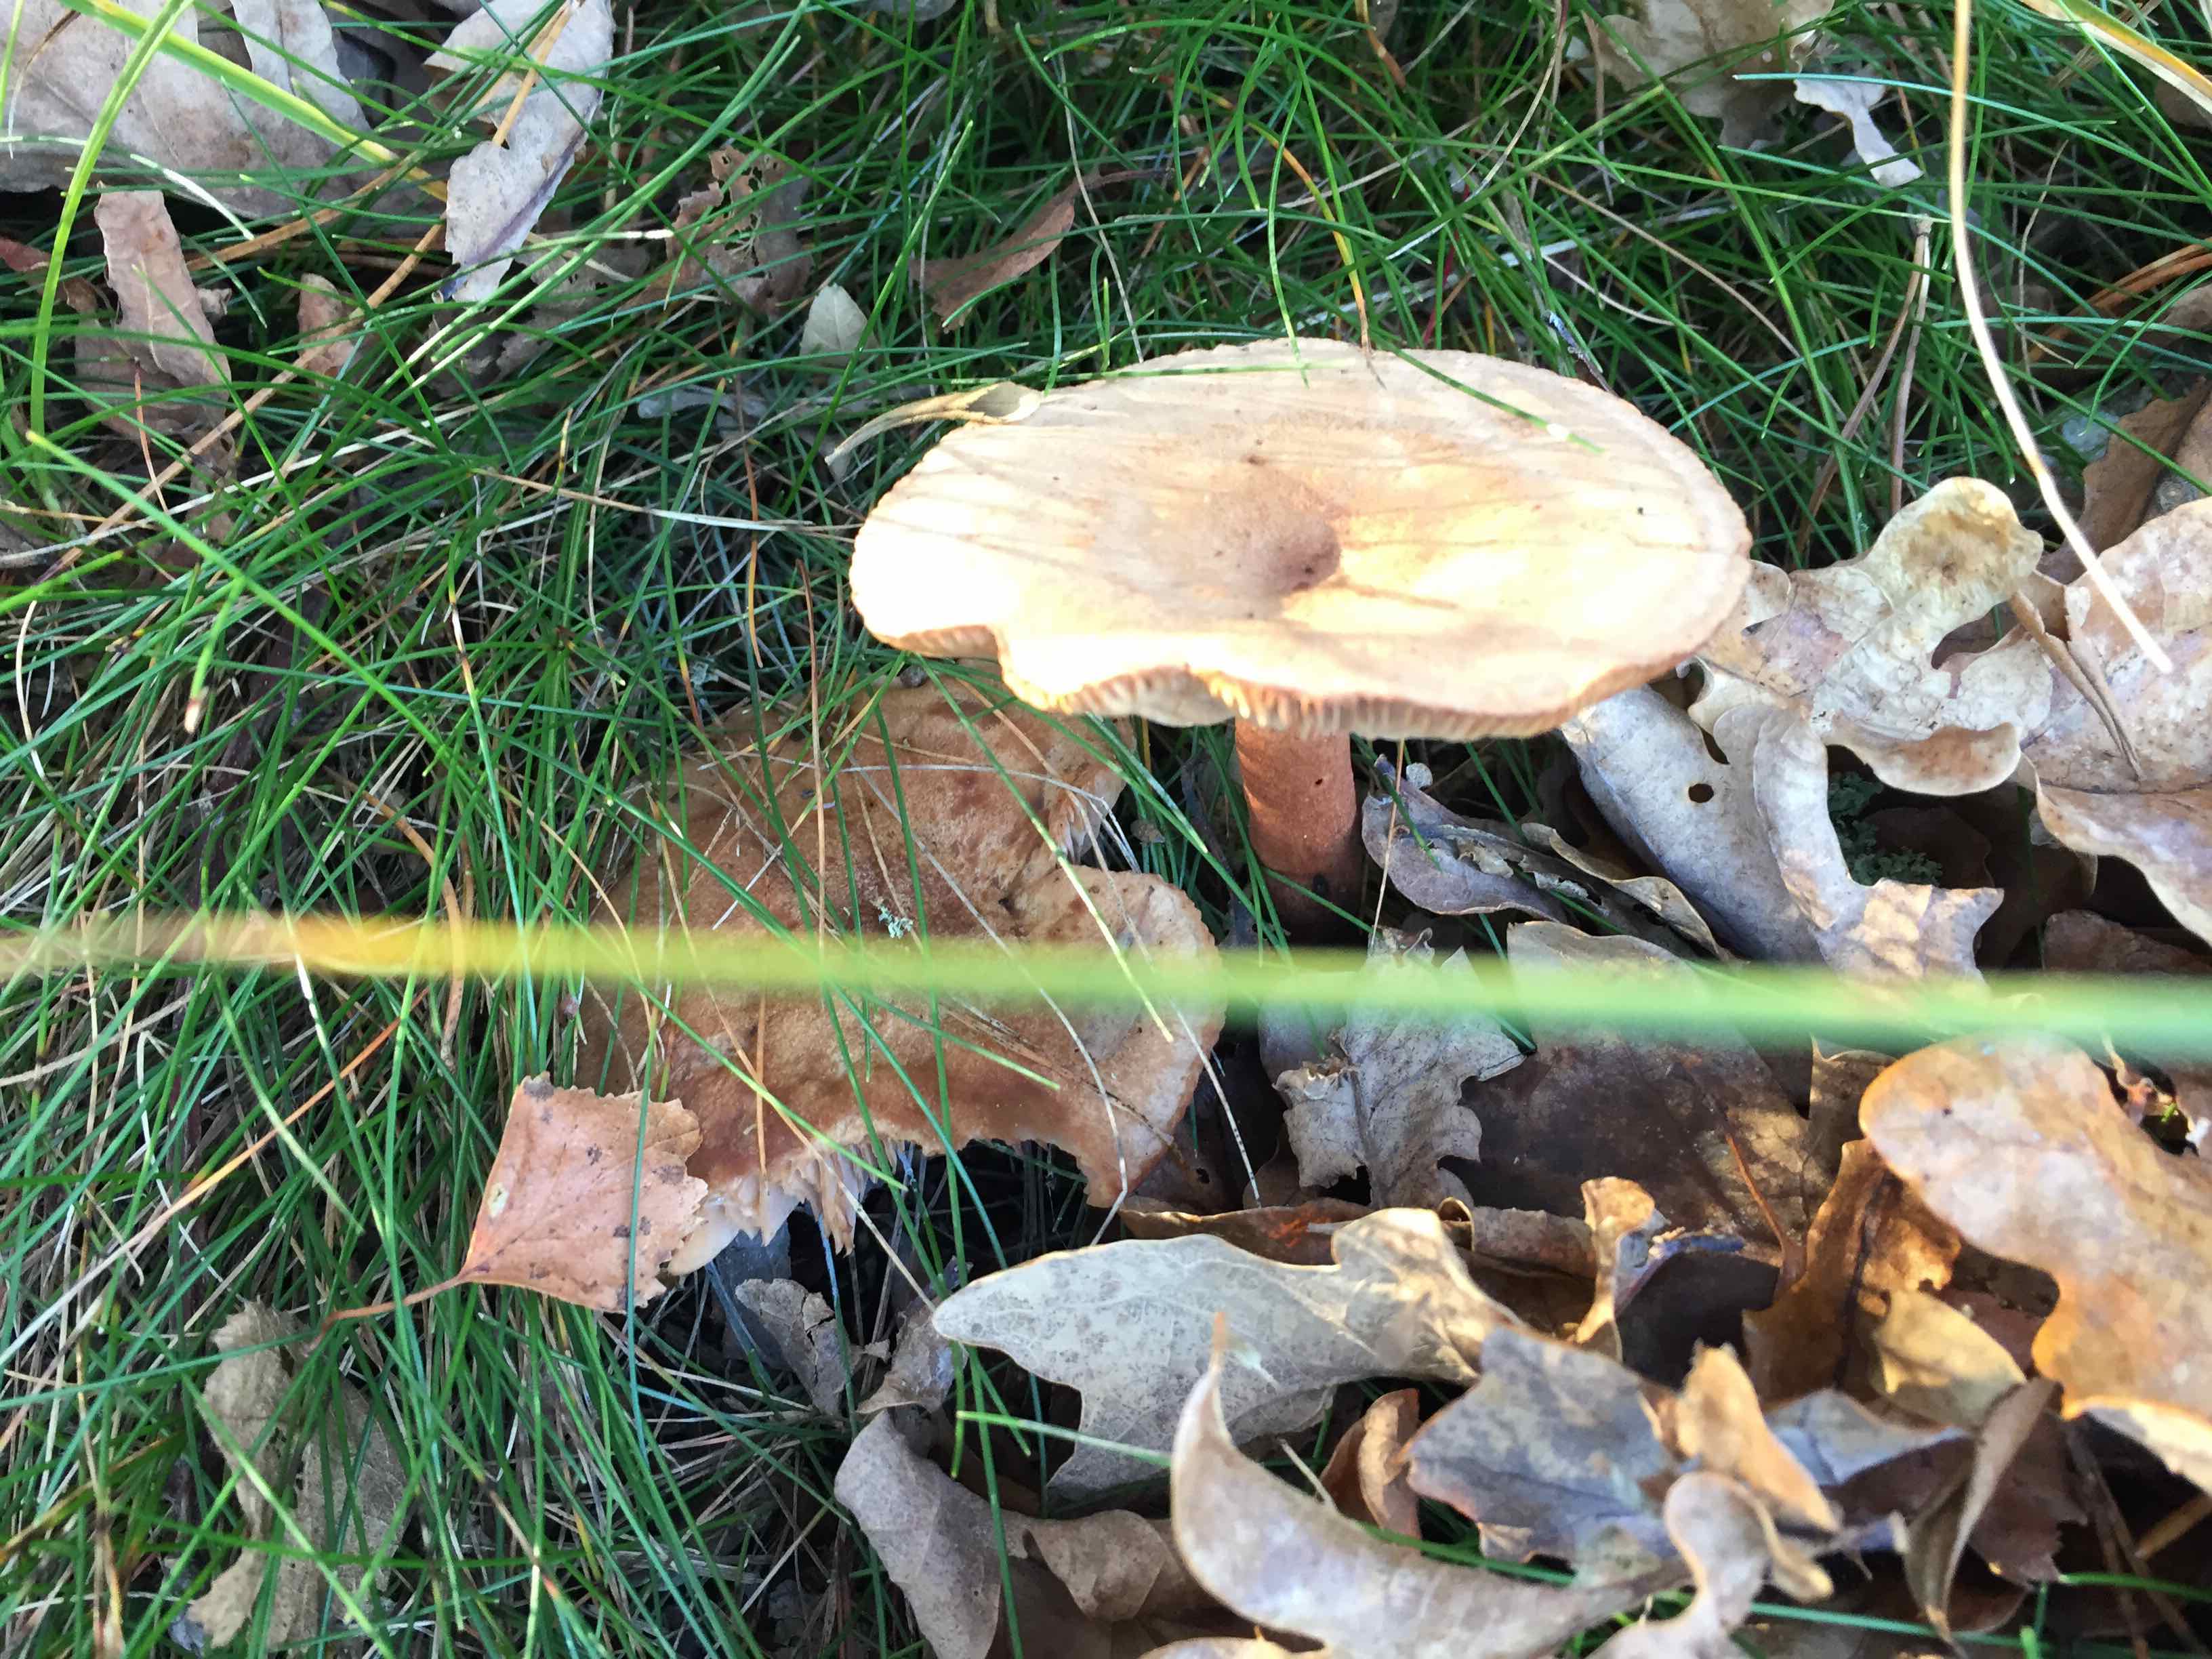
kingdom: Fungi
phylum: Basidiomycota
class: Agaricomycetes
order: Russulales
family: Russulaceae
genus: Lactarius
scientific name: Lactarius
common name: mælkehat
